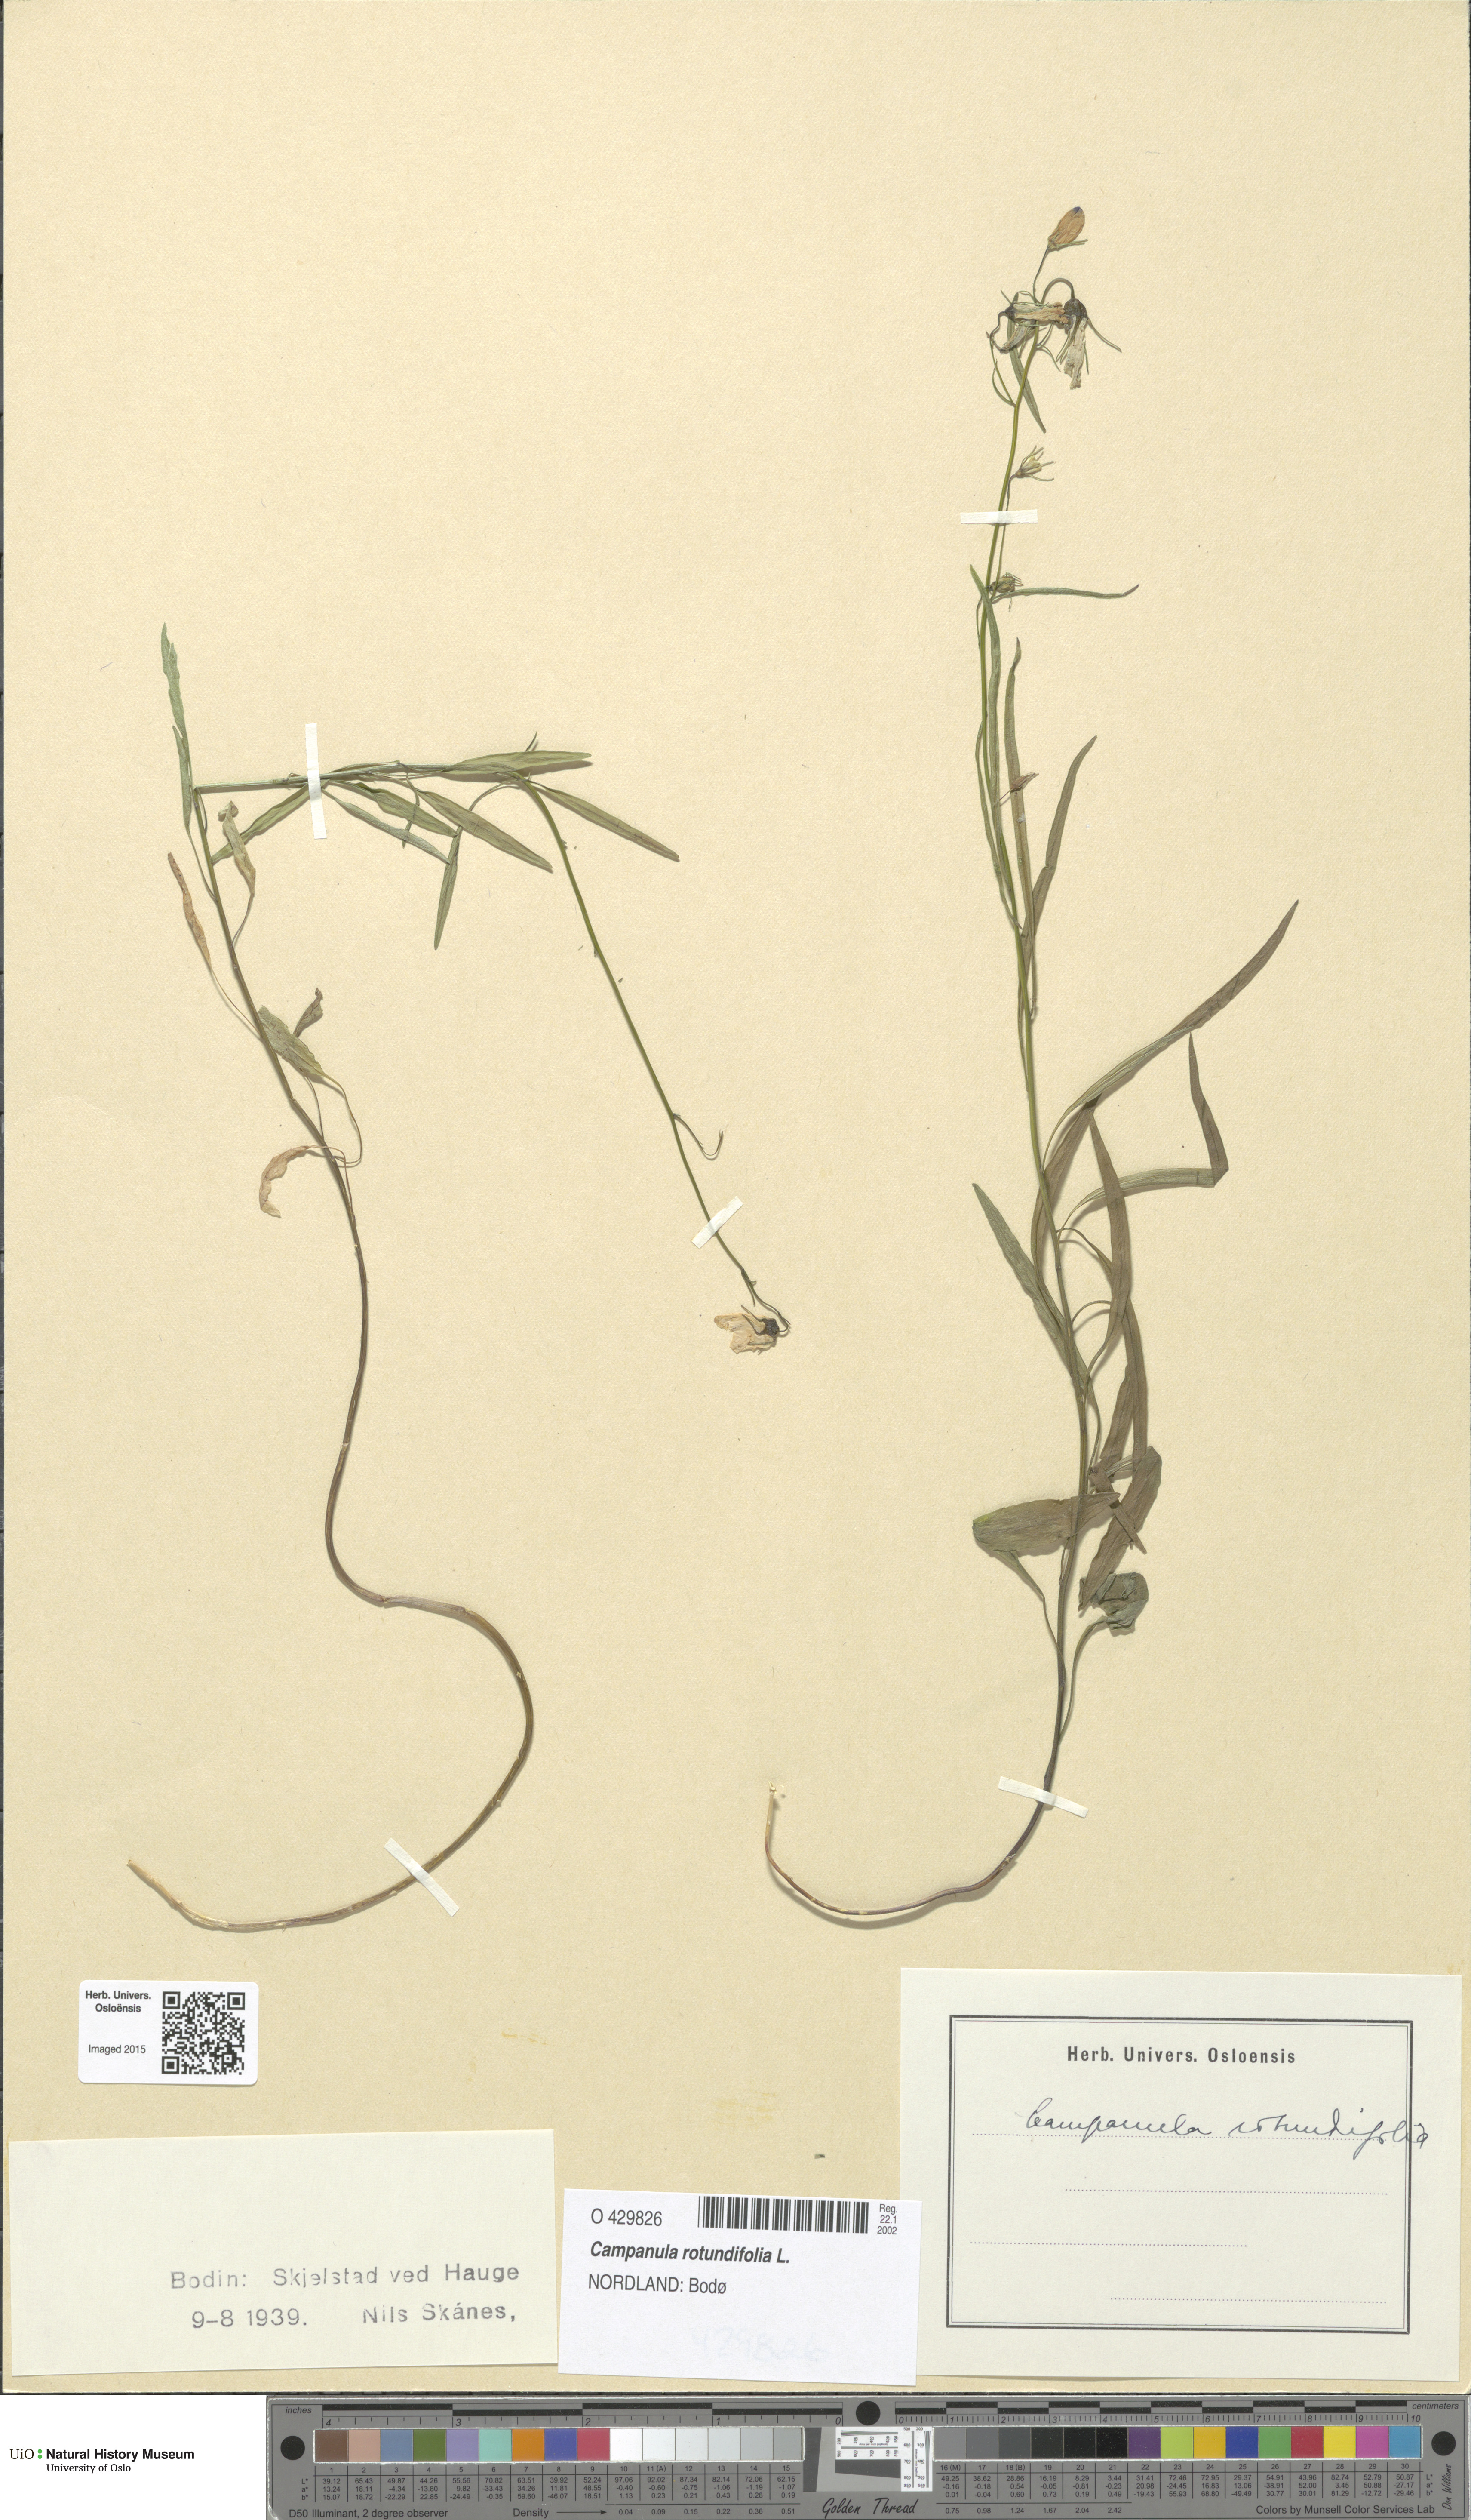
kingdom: Plantae
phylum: Tracheophyta
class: Magnoliopsida
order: Asterales
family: Campanulaceae
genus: Campanula
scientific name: Campanula rotundifolia
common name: Harebell
